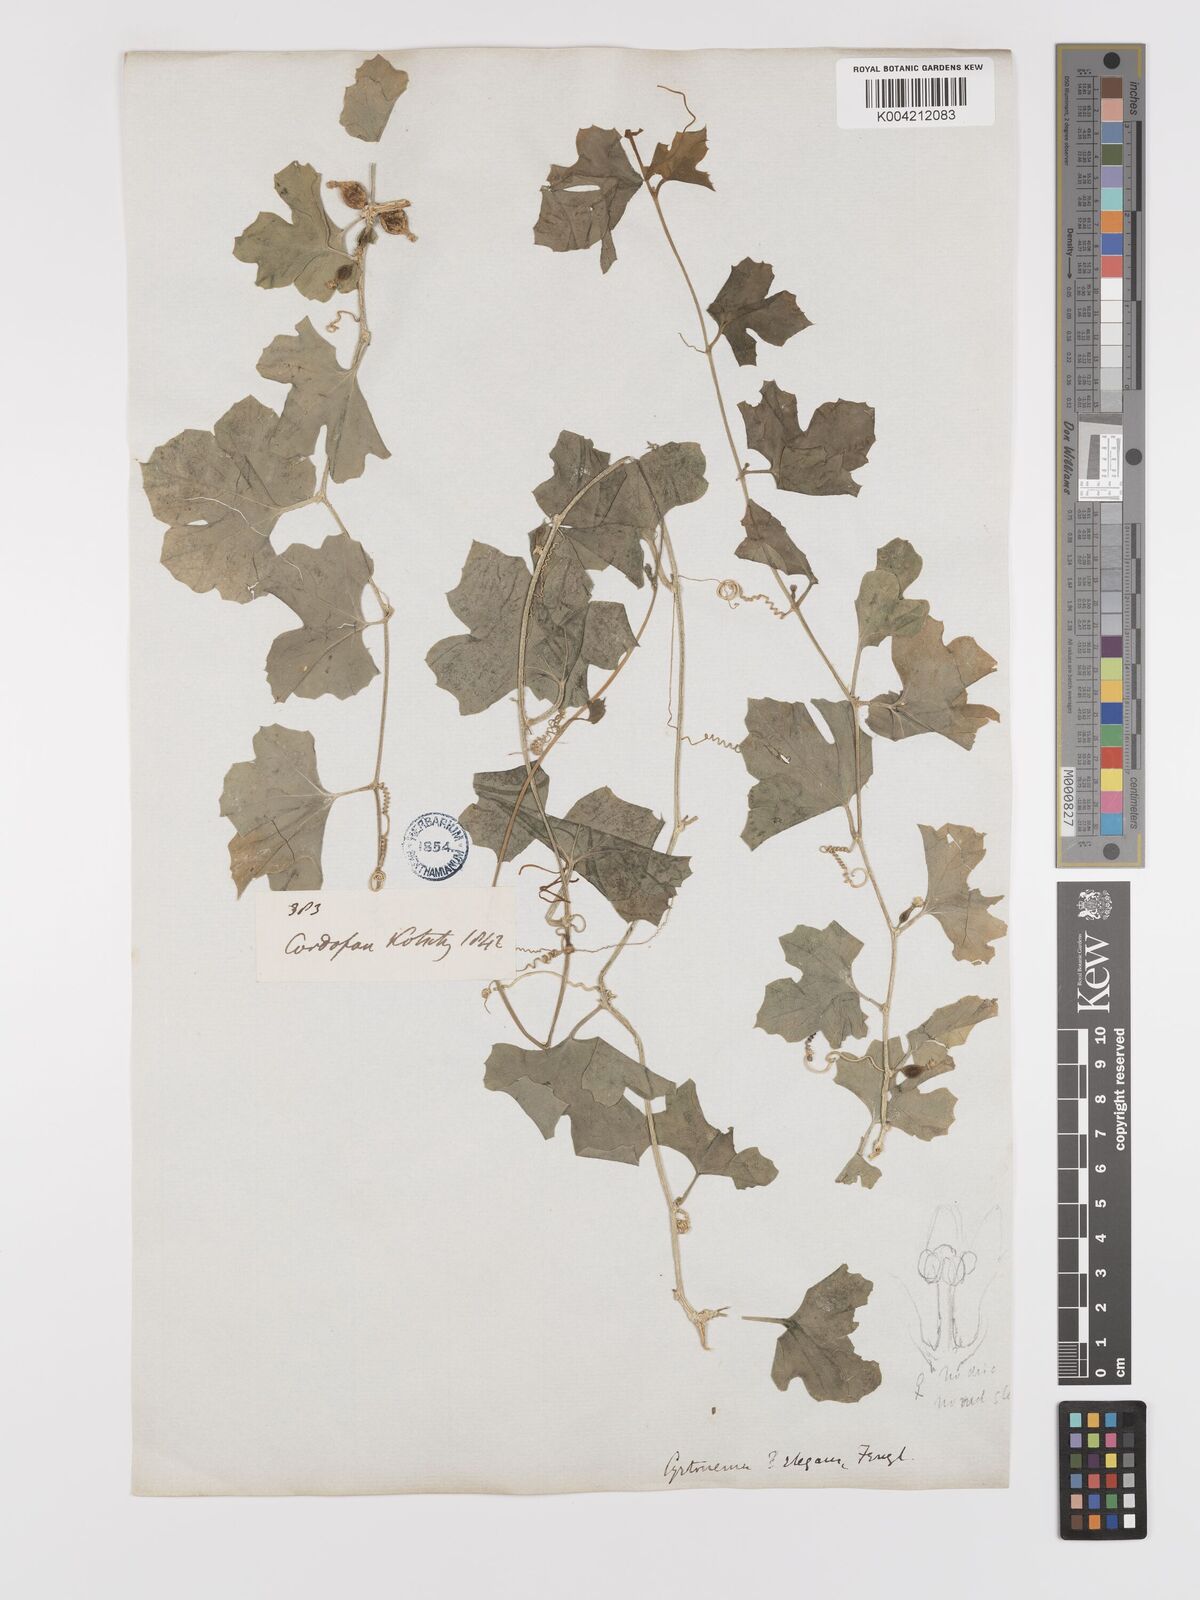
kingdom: Plantae
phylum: Tracheophyta
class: Magnoliopsida
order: Cucurbitales
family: Cucurbitaceae
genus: Kedrostis
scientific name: Kedrostis gijef
